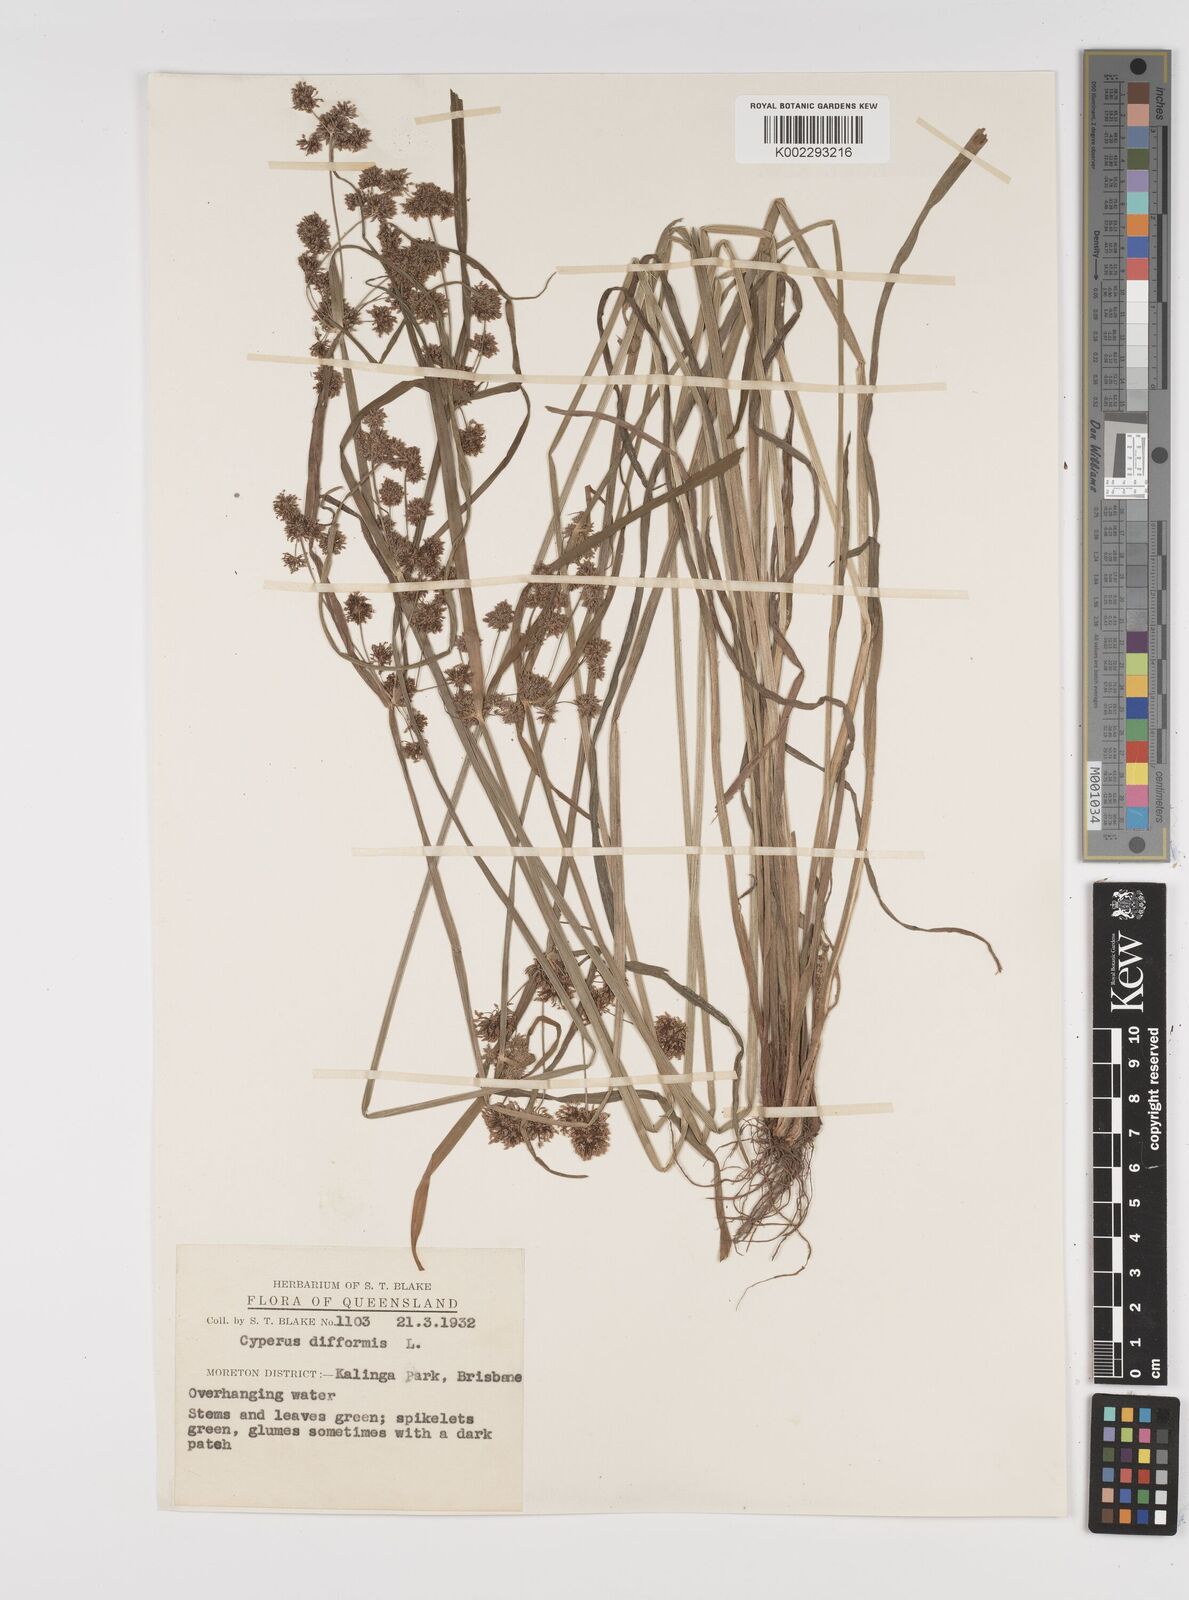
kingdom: Plantae
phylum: Tracheophyta
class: Liliopsida
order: Poales
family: Cyperaceae
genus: Cyperus
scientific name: Cyperus difformis
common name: Variable flatsedge
